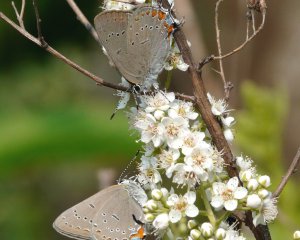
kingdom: Animalia
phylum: Arthropoda
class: Insecta
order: Lepidoptera
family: Lycaenidae
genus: Strymon
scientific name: Strymon acadica
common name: Acadian Hairstreak
